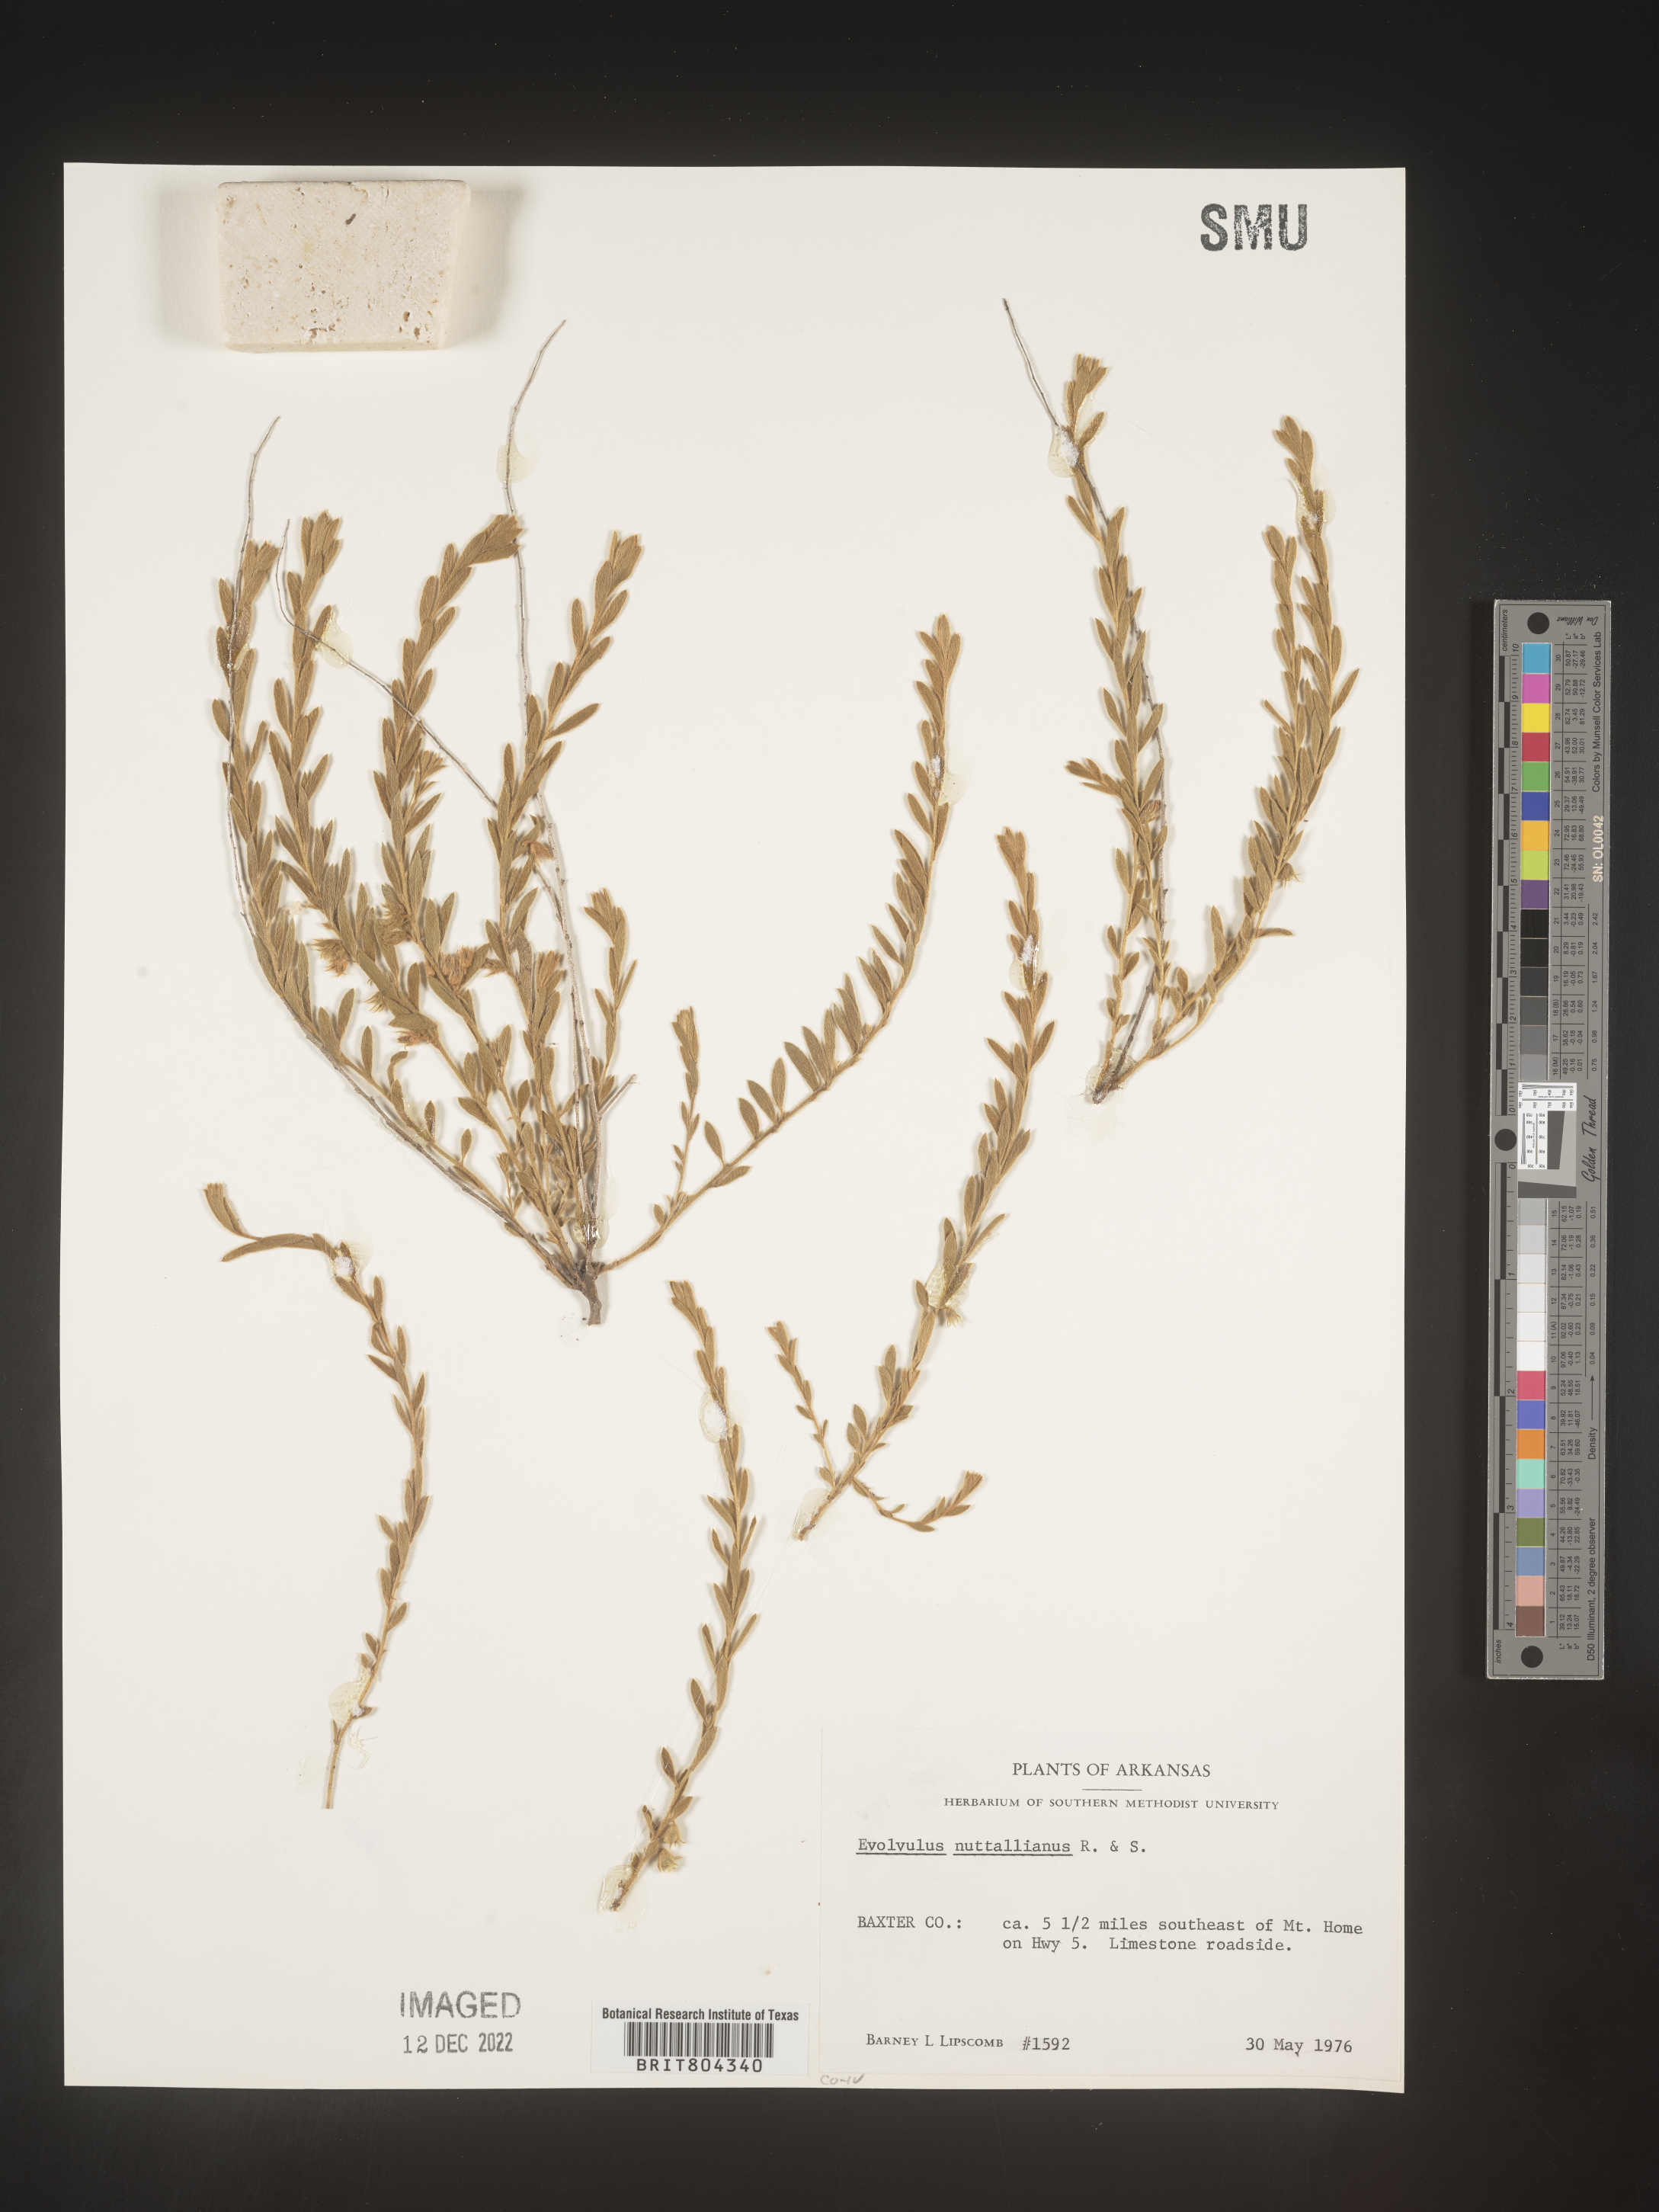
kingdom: Plantae
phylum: Tracheophyta
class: Magnoliopsida
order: Solanales
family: Convolvulaceae
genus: Evolvulus
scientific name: Evolvulus nuttallianus
